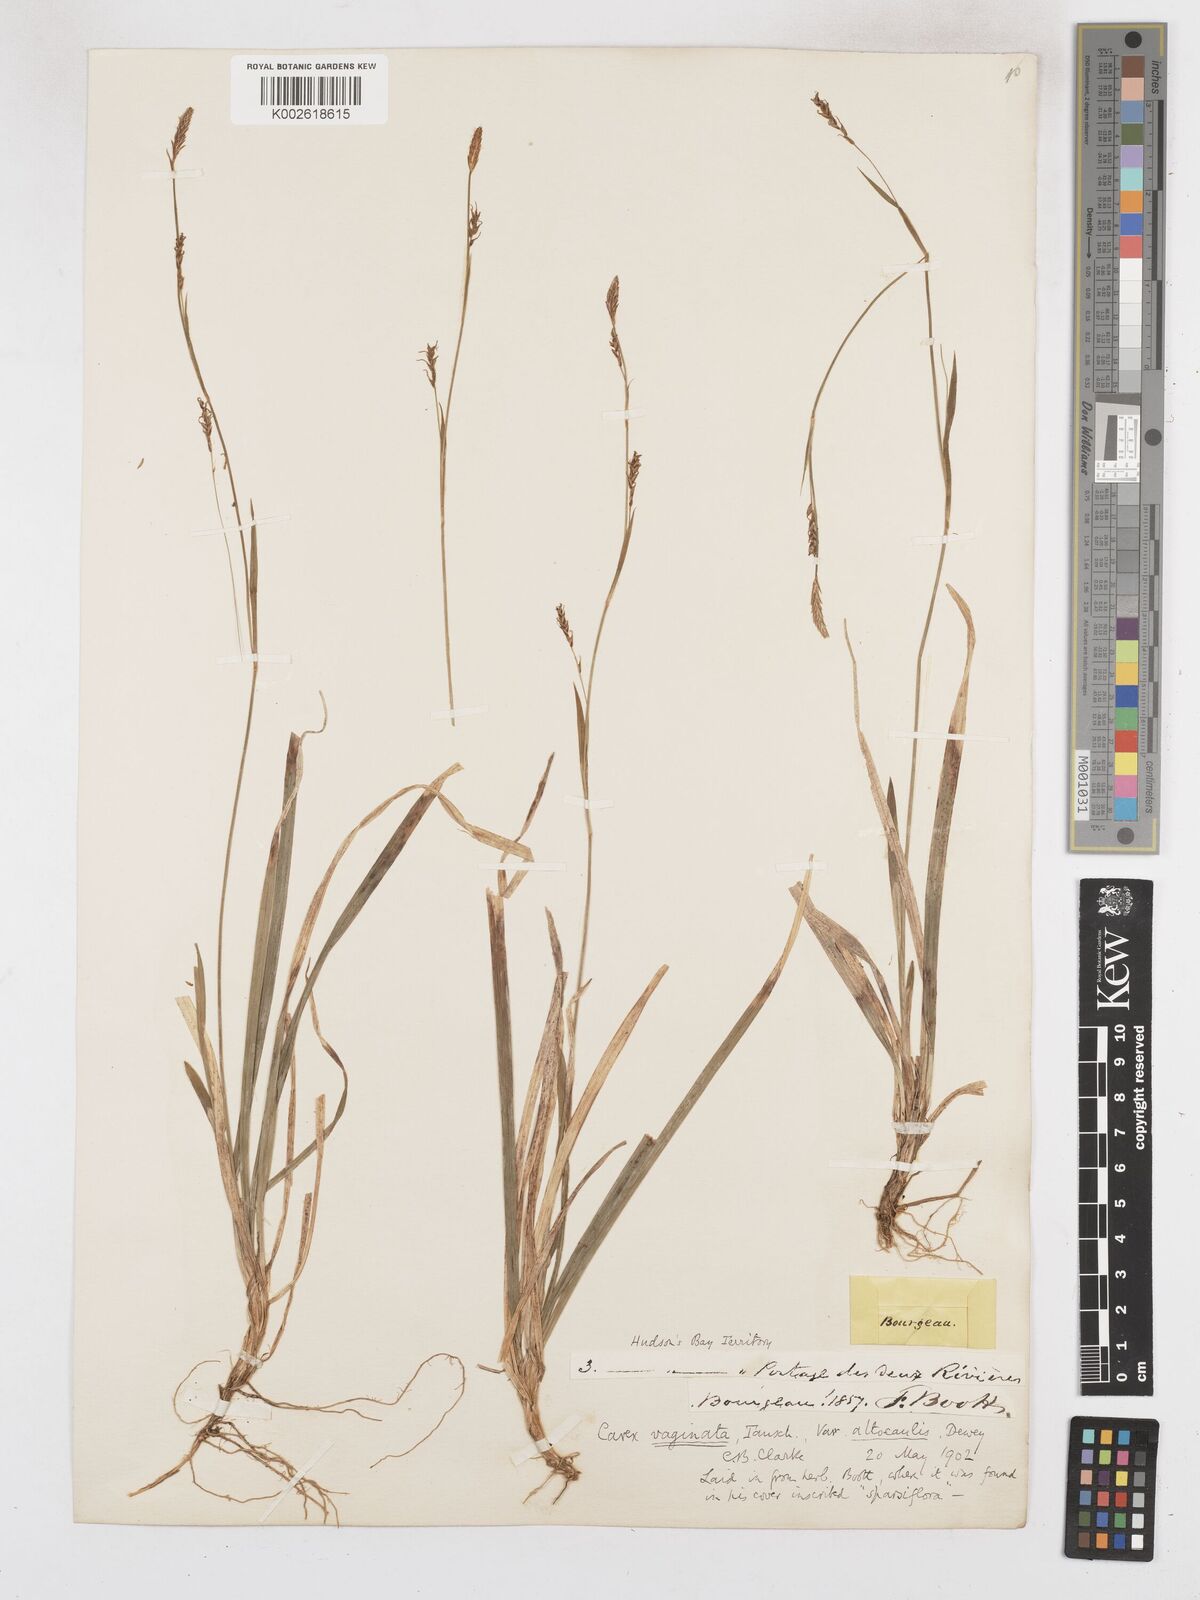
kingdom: Plantae
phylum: Tracheophyta
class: Liliopsida
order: Poales
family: Cyperaceae
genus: Carex
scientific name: Carex vaginata
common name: Sheathed sedge
